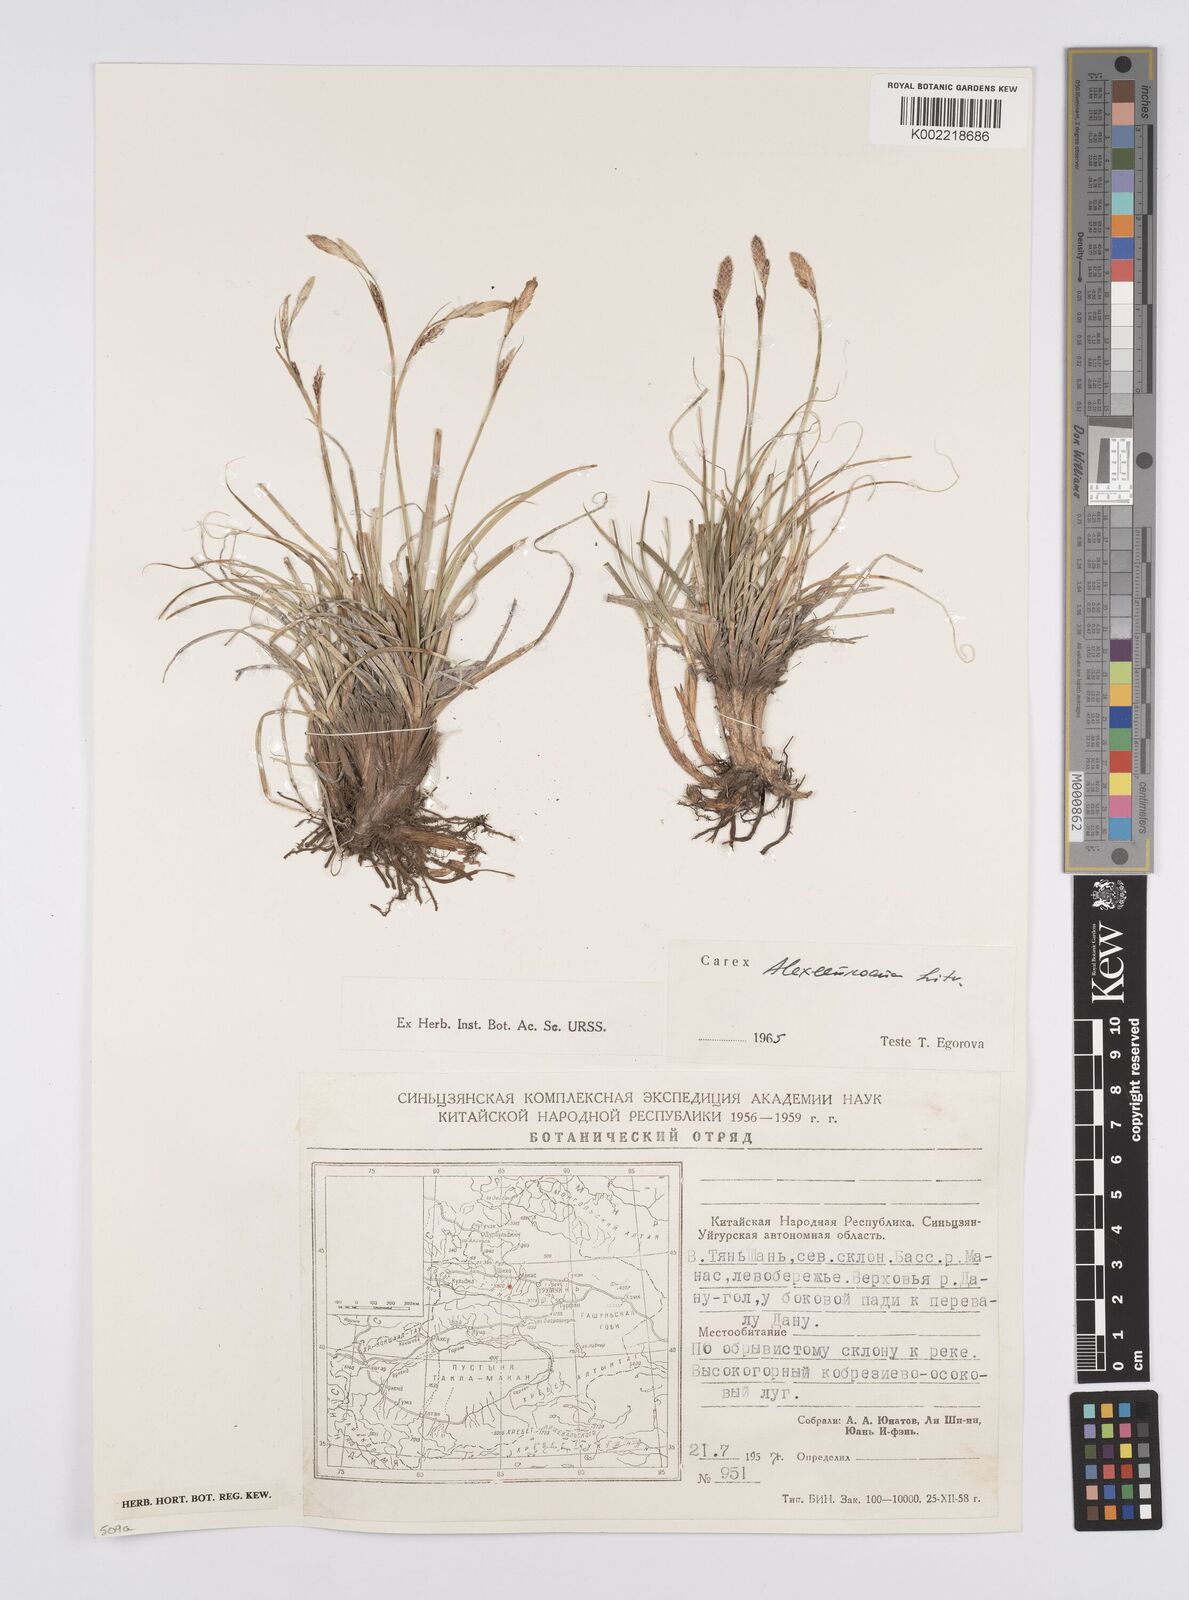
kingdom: Plantae
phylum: Tracheophyta
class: Liliopsida
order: Poales
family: Cyperaceae
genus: Carex
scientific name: Carex haematostoma
